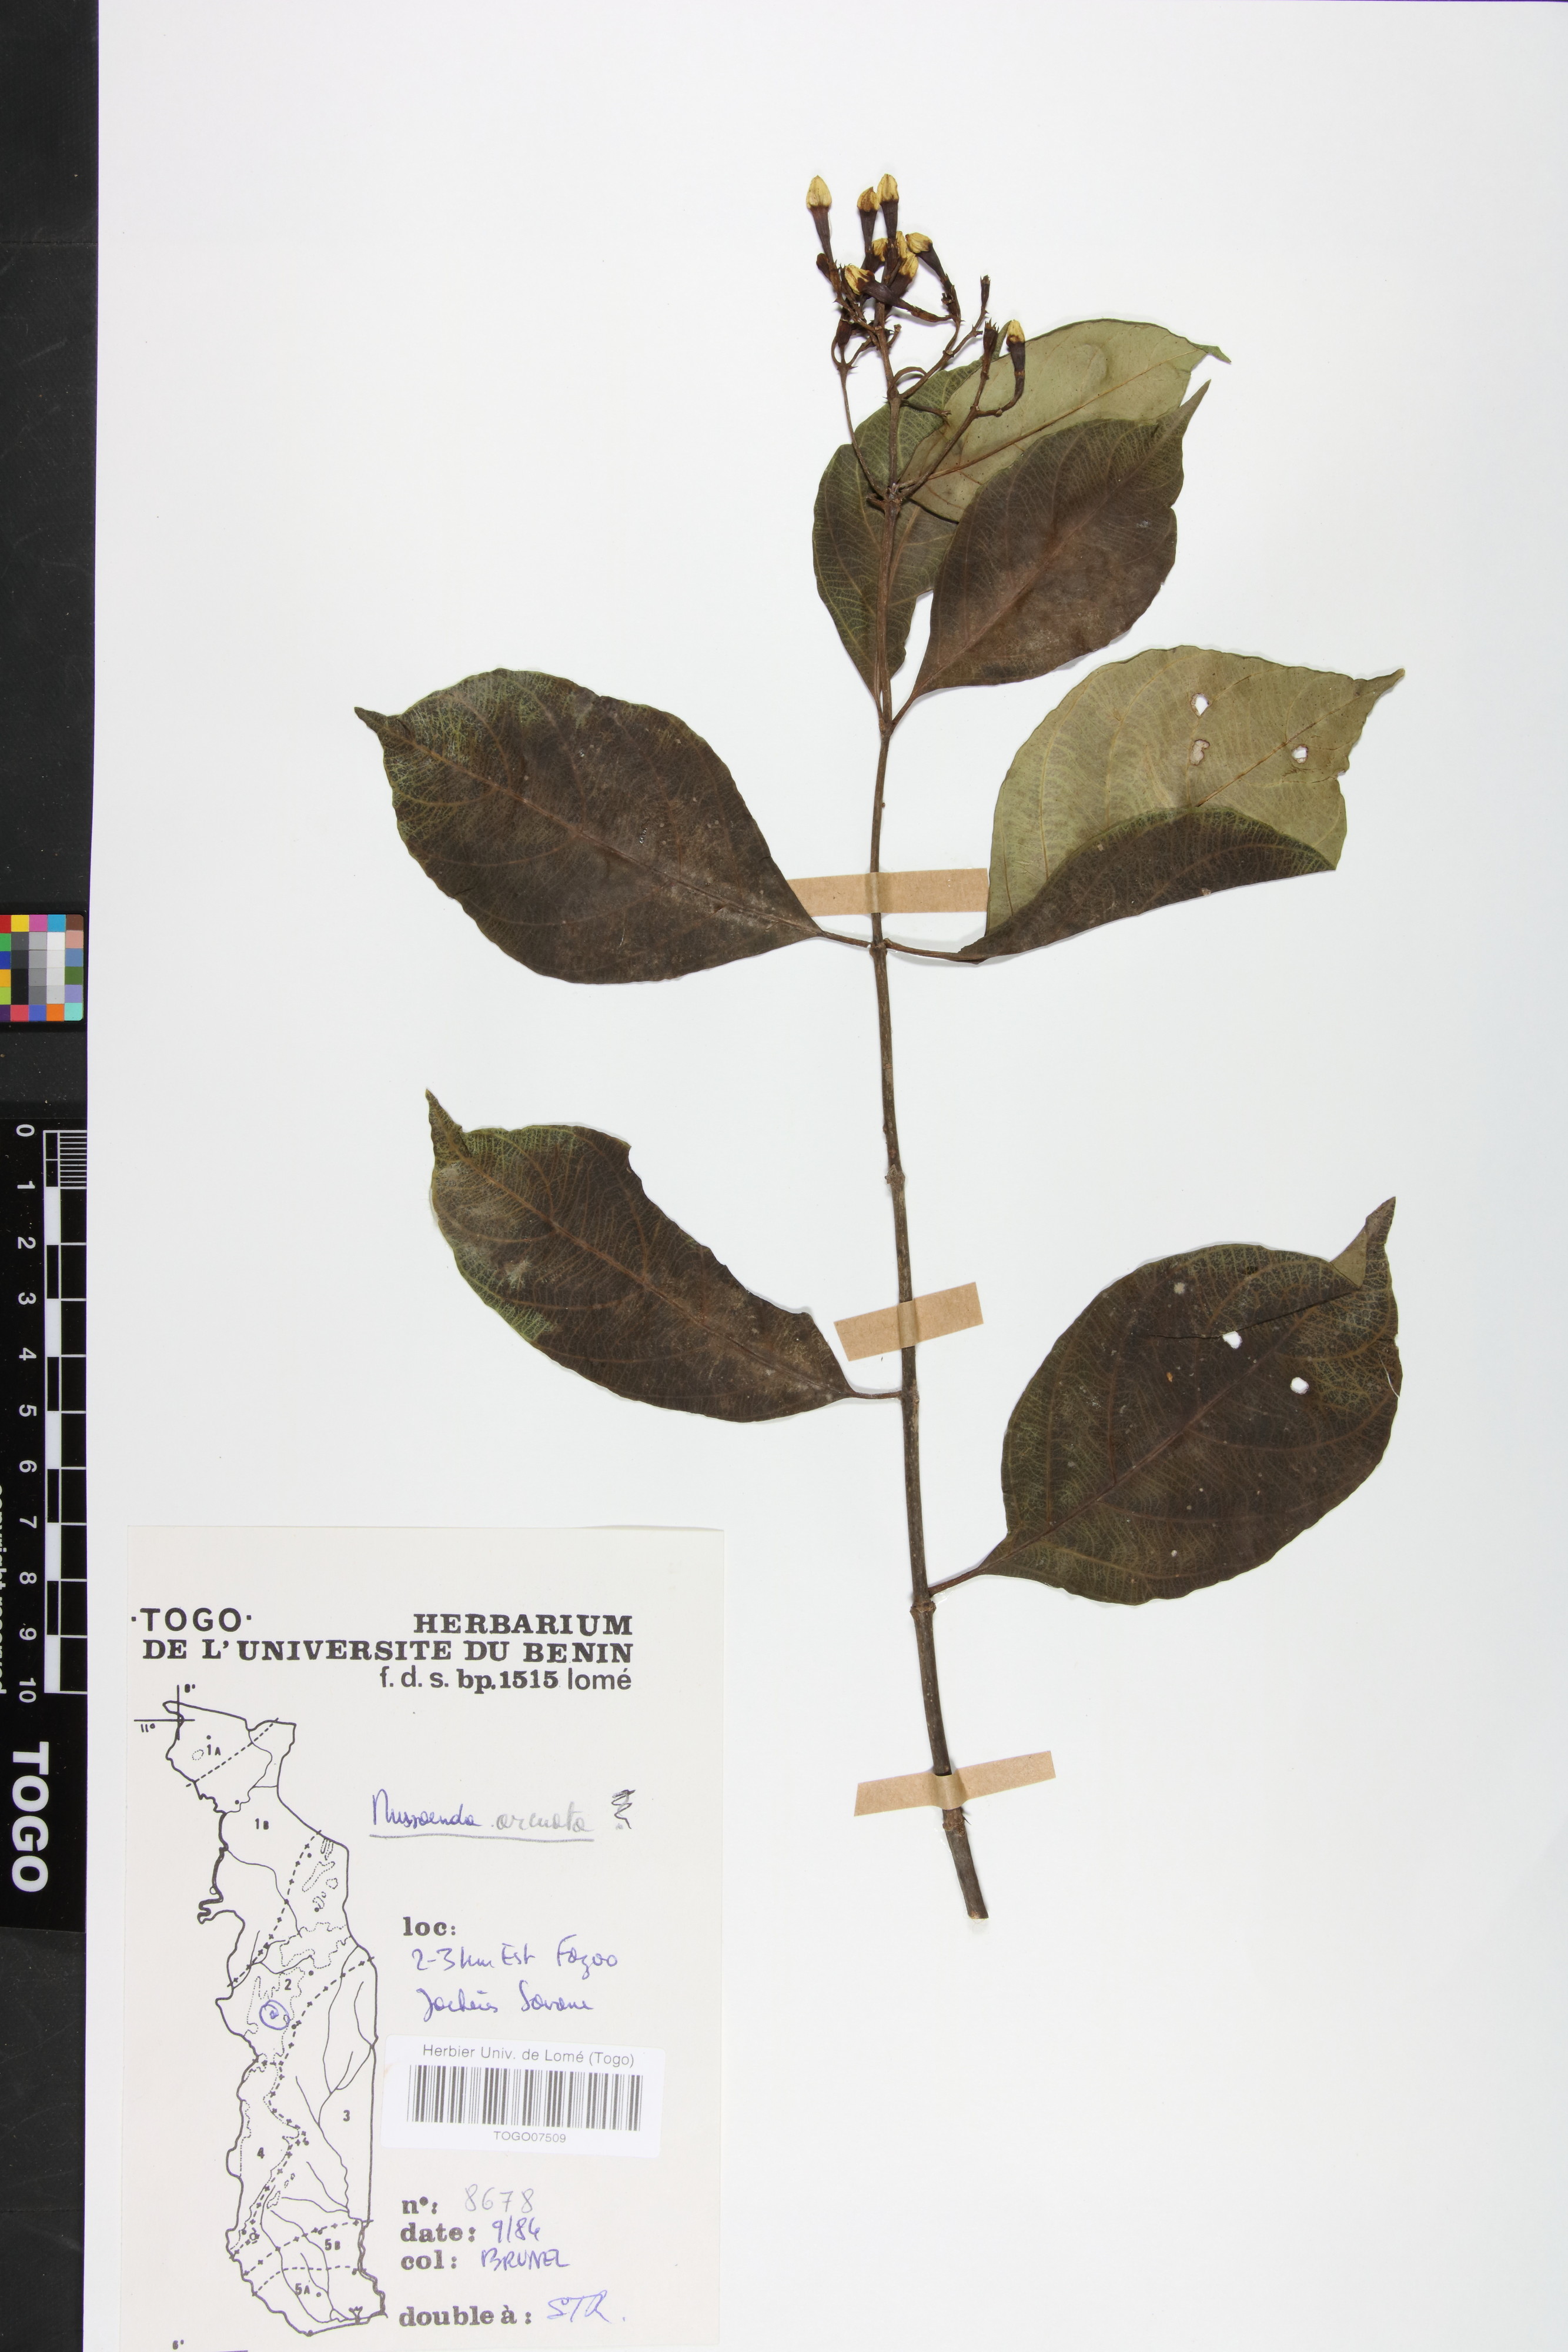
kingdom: Plantae
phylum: Tracheophyta
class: Magnoliopsida
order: Gentianales
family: Rubiaceae
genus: Mussaenda
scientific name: Mussaenda arcuata
